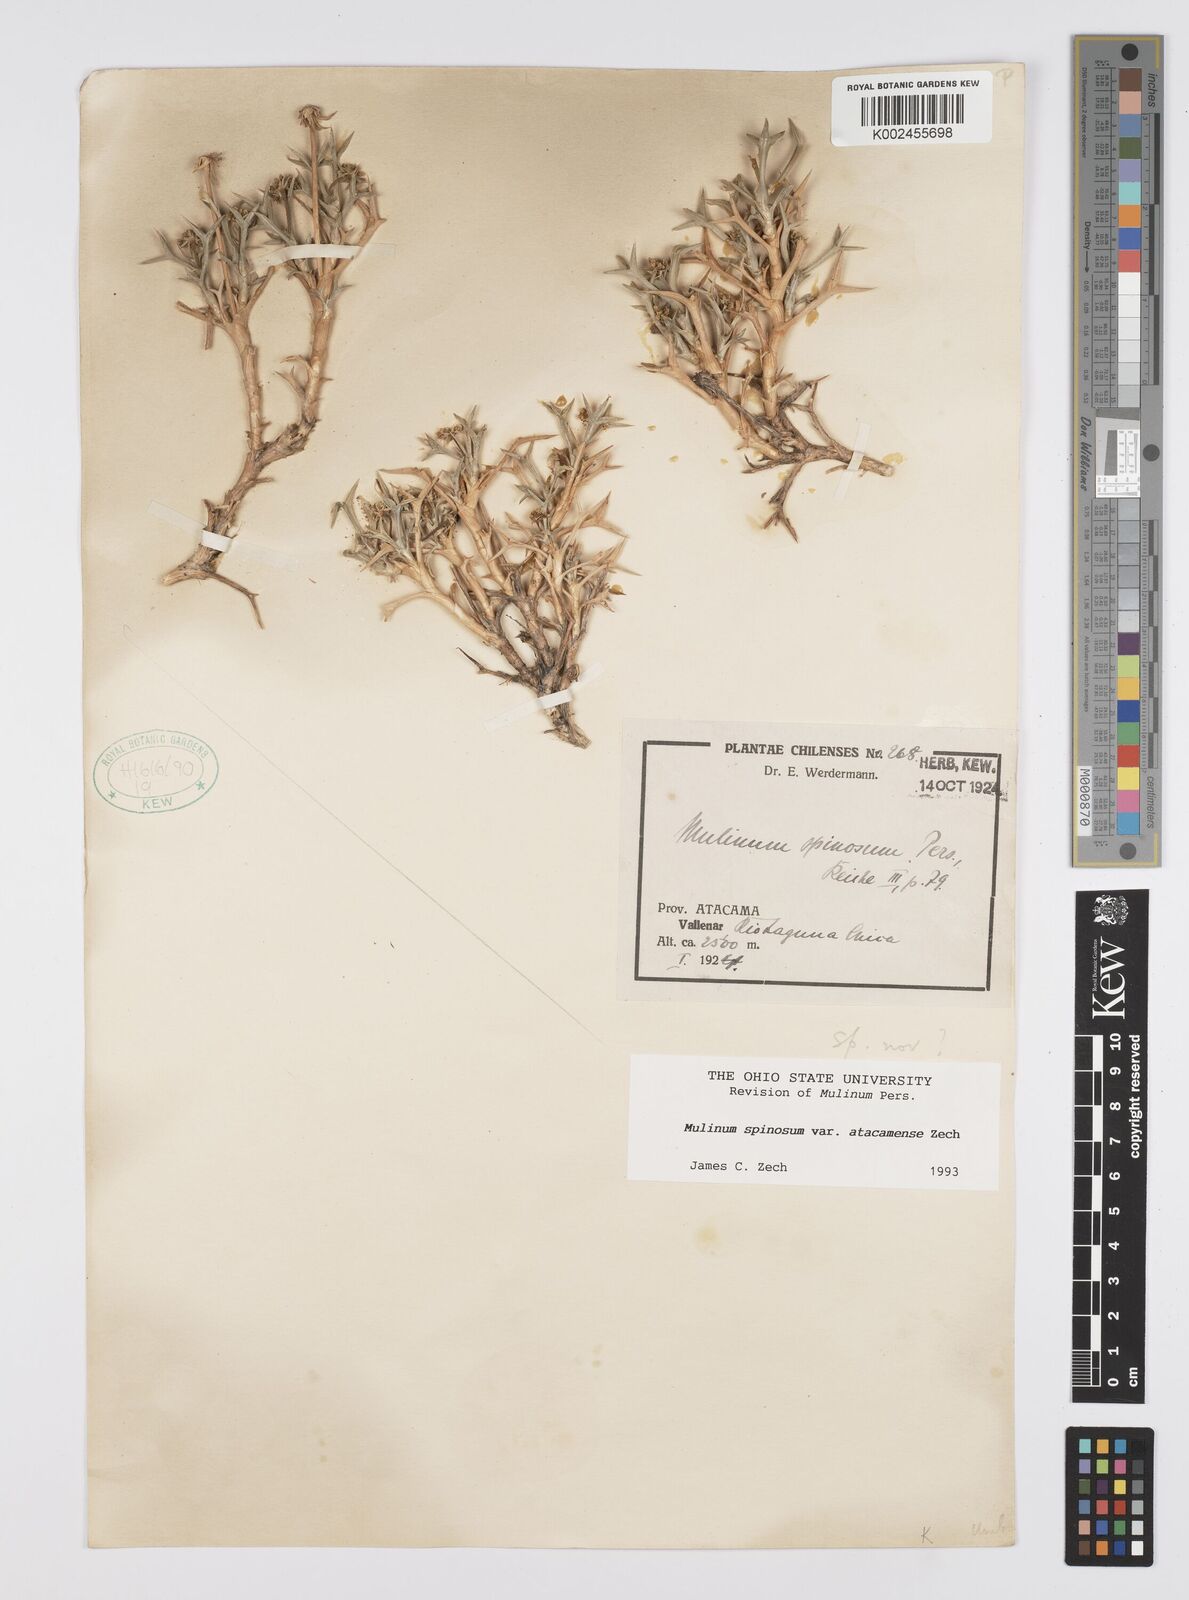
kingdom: Plantae
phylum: Tracheophyta
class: Magnoliopsida
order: Apiales
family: Apiaceae
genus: Azorella
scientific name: Azorella prolifera
